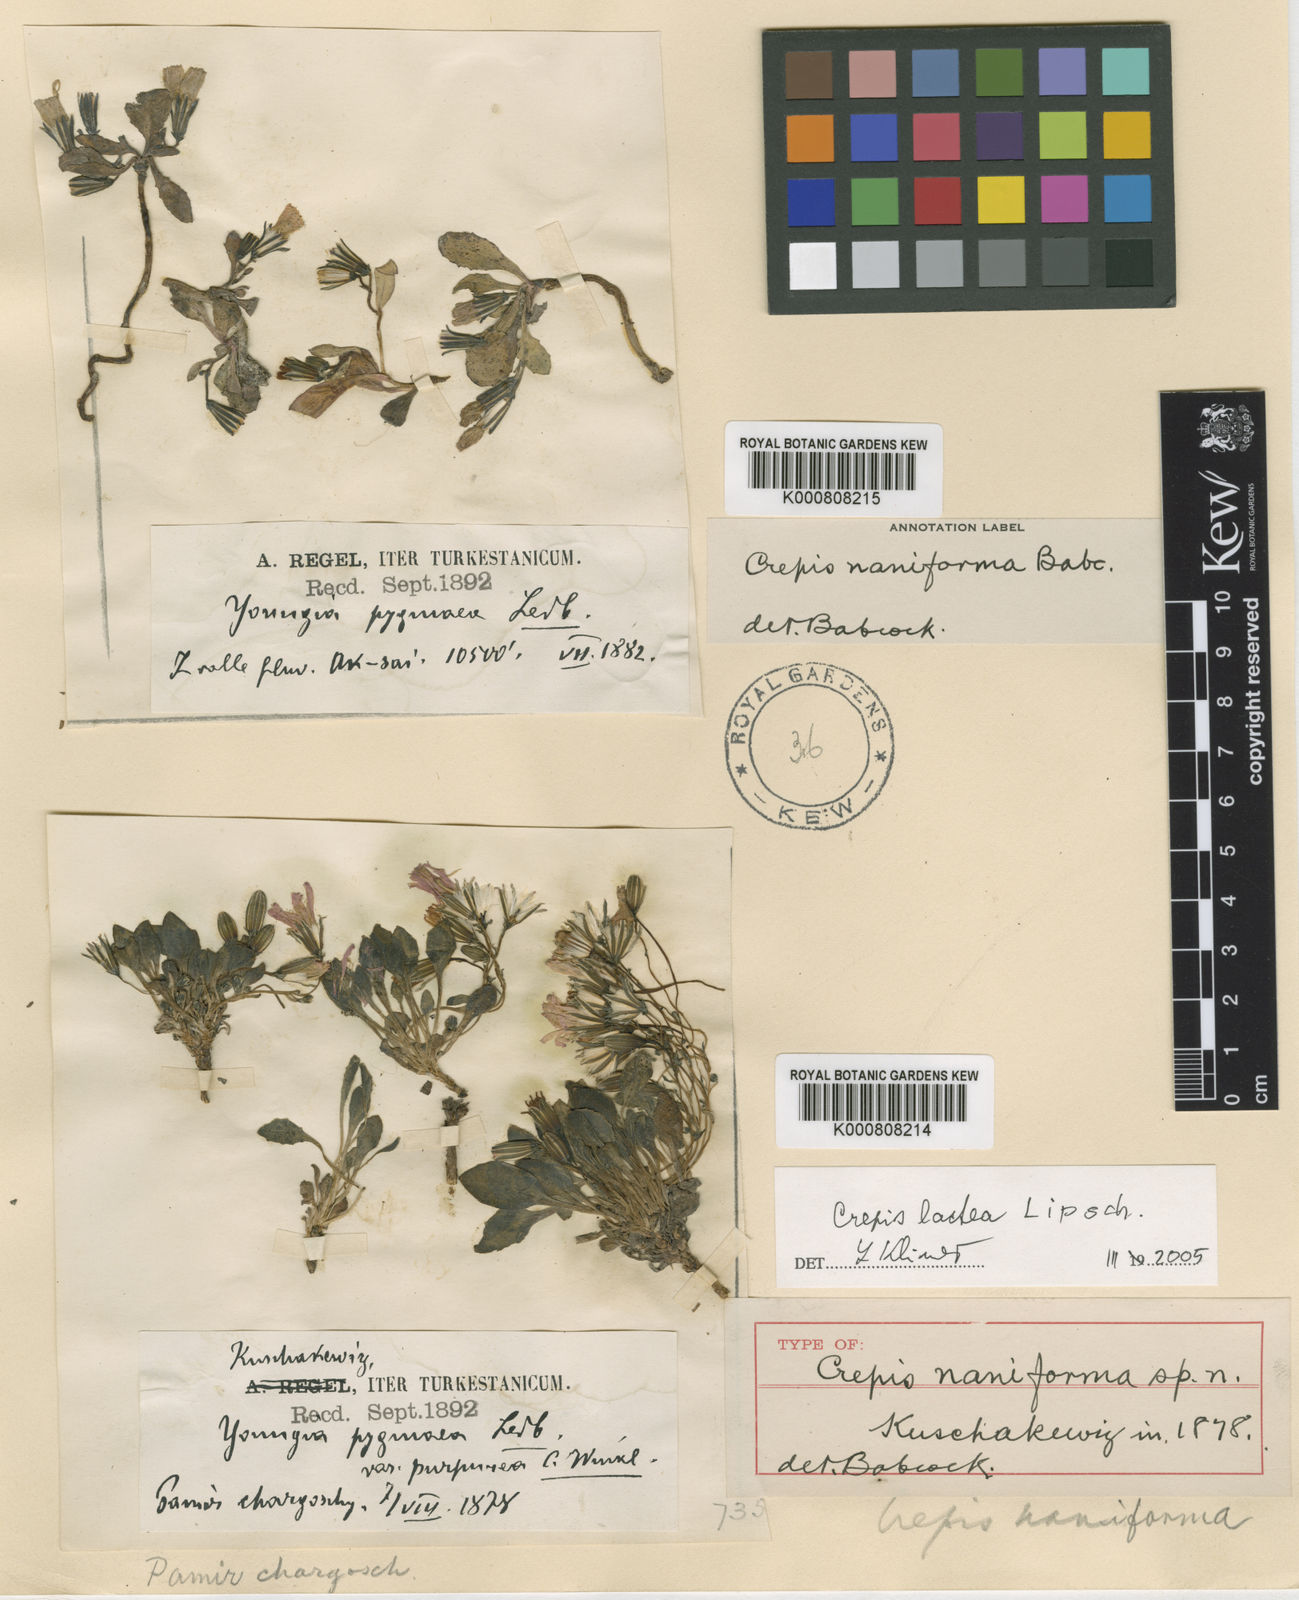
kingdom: Plantae
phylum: Tracheophyta
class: Magnoliopsida
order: Asterales
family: Asteraceae
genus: Askellia
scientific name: Askellia naniformis
